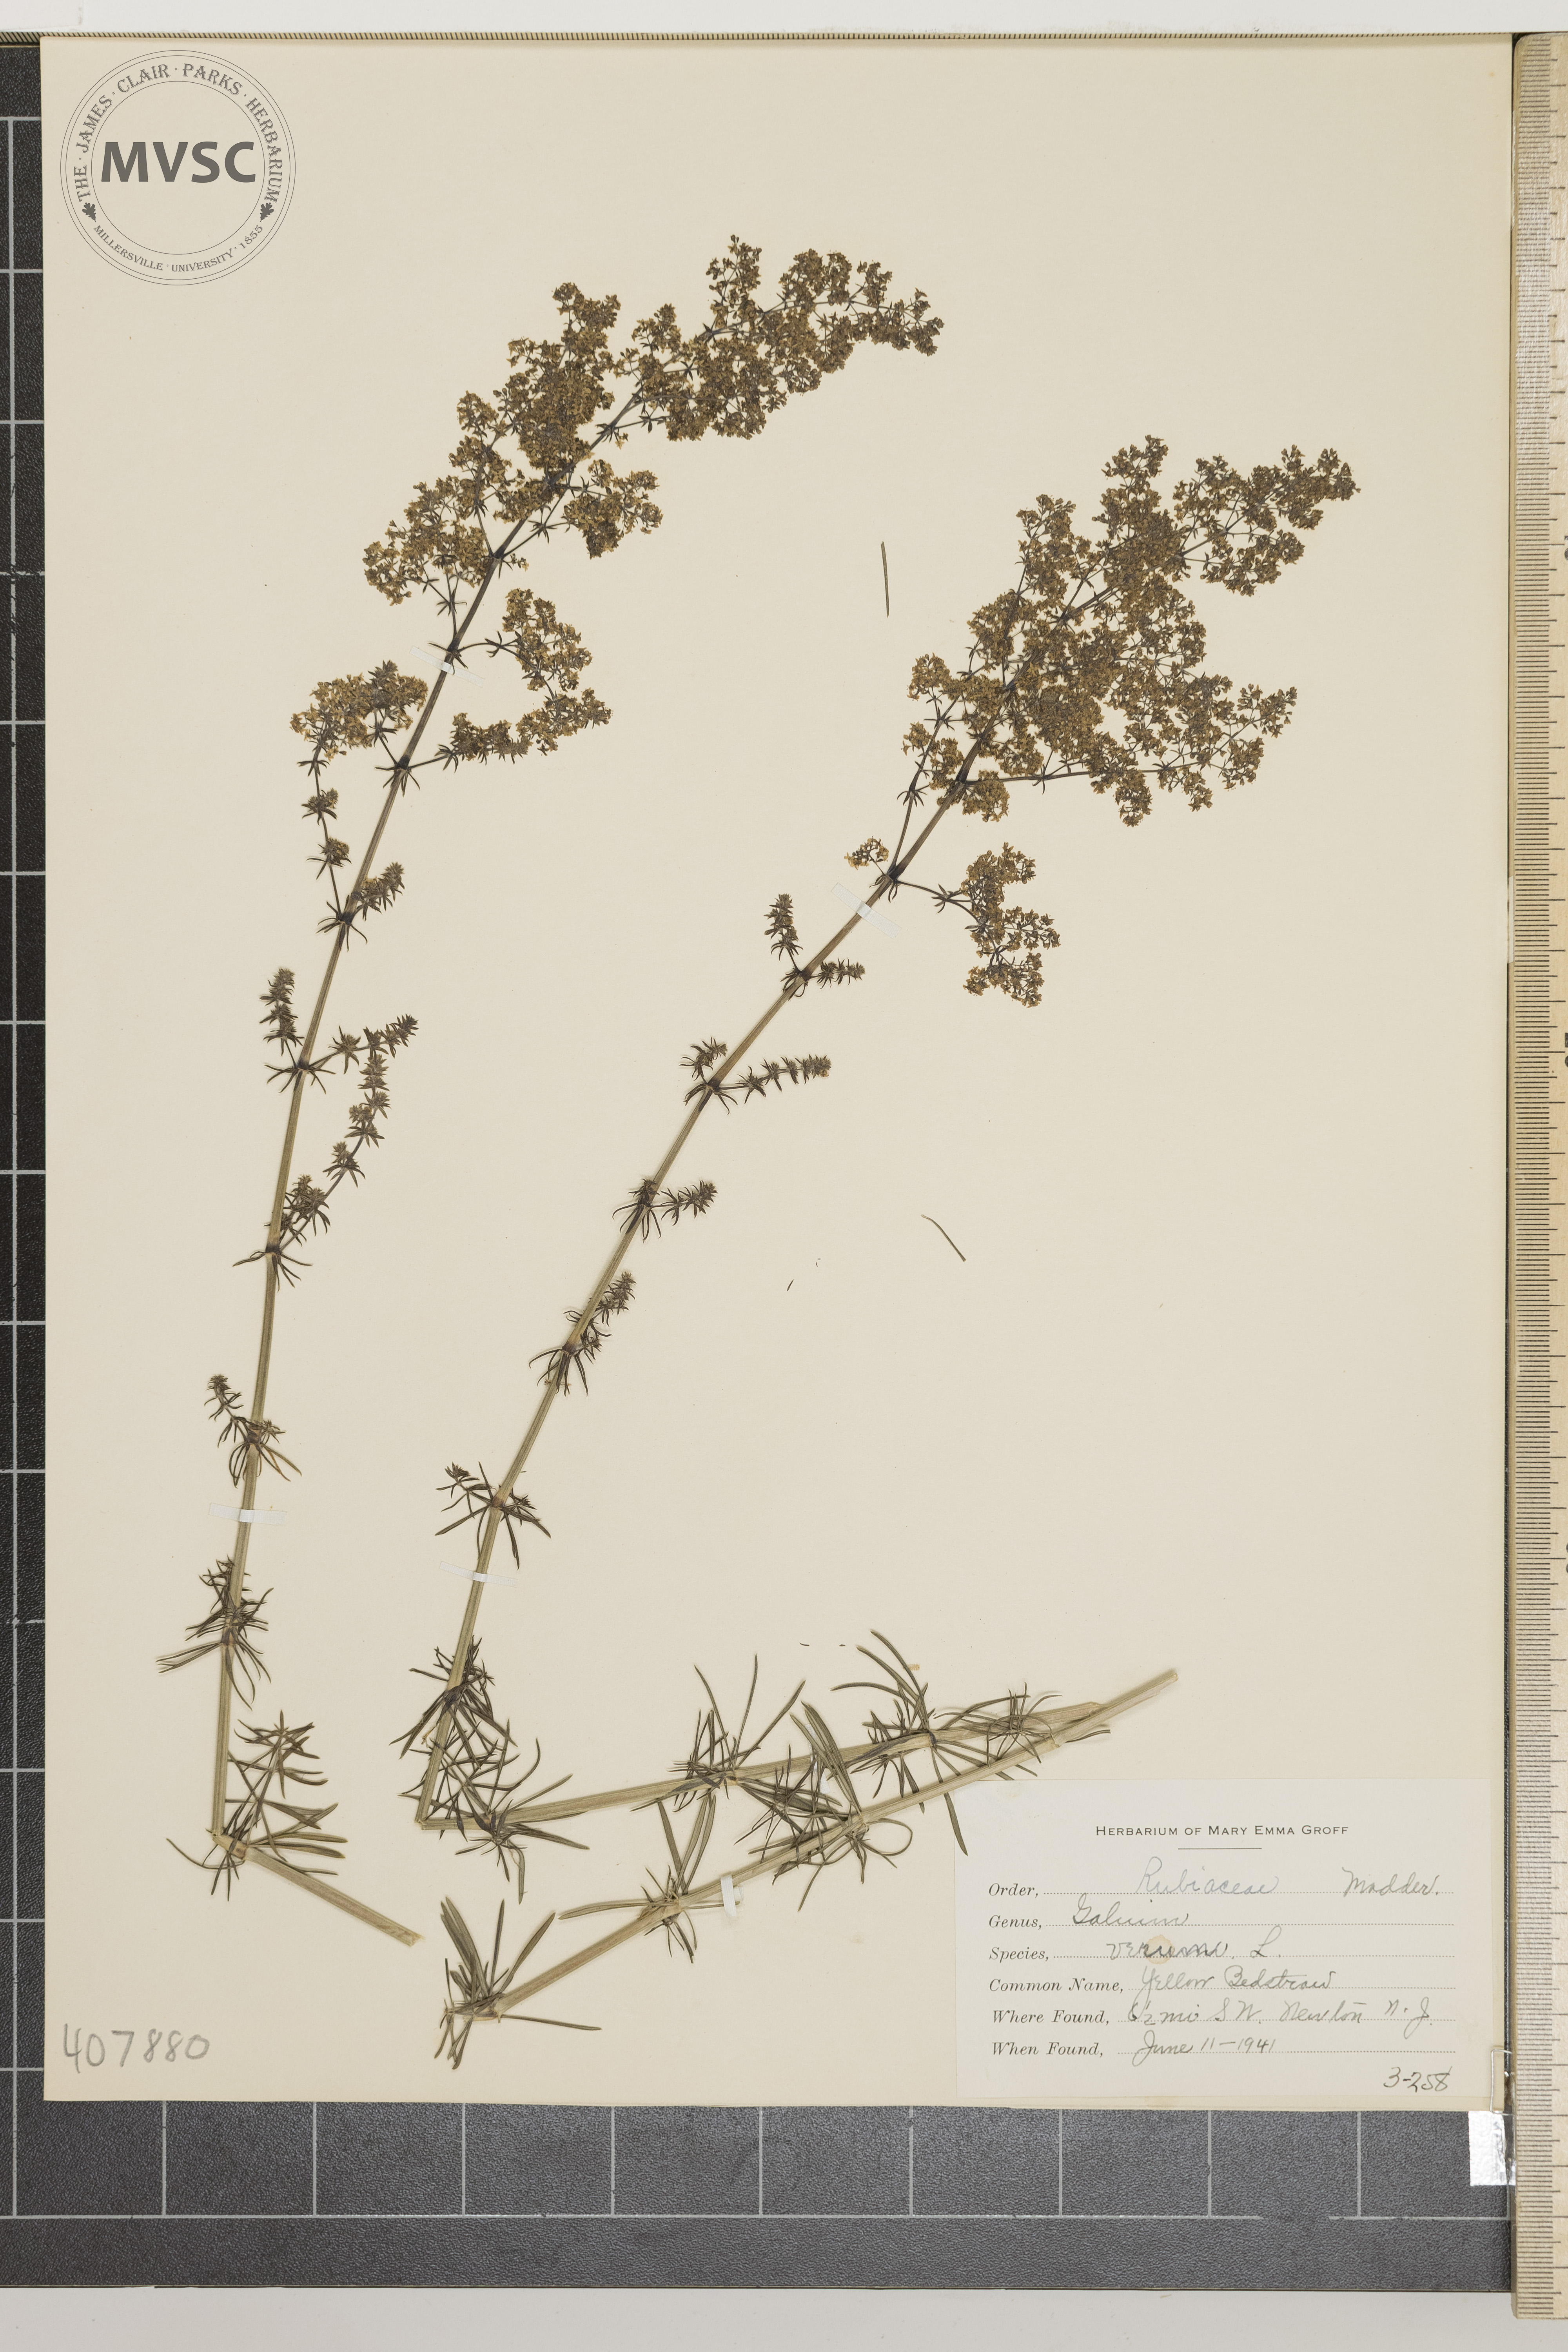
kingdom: Plantae
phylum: Tracheophyta
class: Magnoliopsida
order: Gentianales
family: Rubiaceae
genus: Galium
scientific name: Galium verum
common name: Yellow Bedstraw
